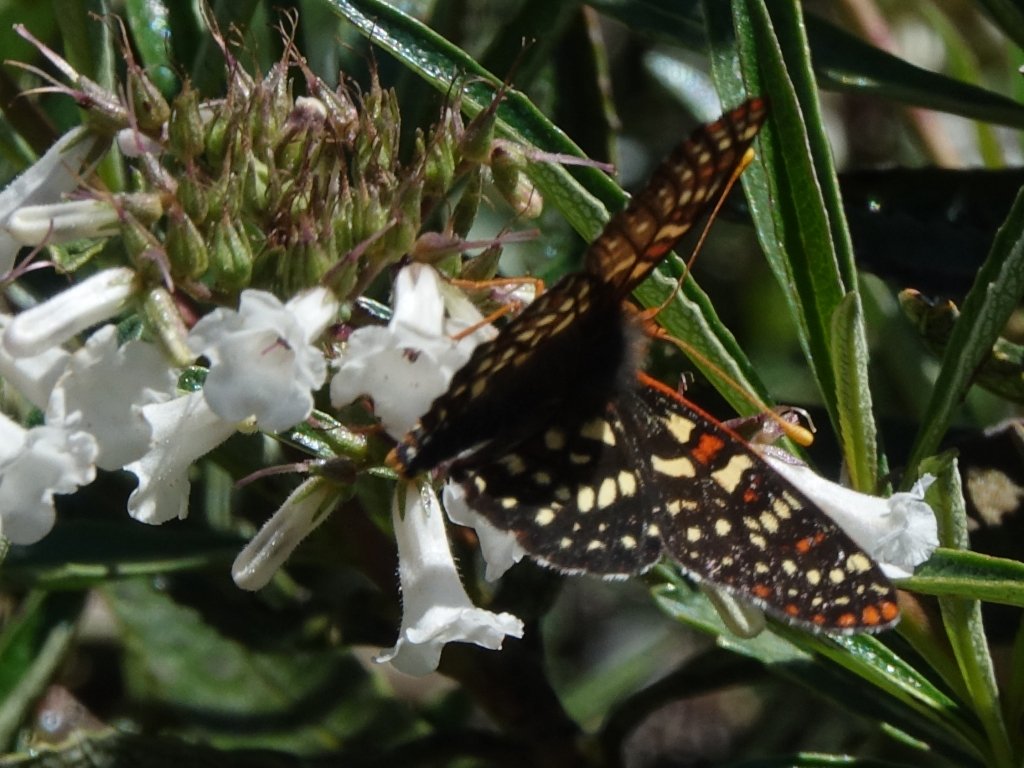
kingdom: Animalia
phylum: Arthropoda
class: Insecta
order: Lepidoptera
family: Nymphalidae
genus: Occidryas
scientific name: Occidryas chalcedona
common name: Chalcedon Checkerspot
